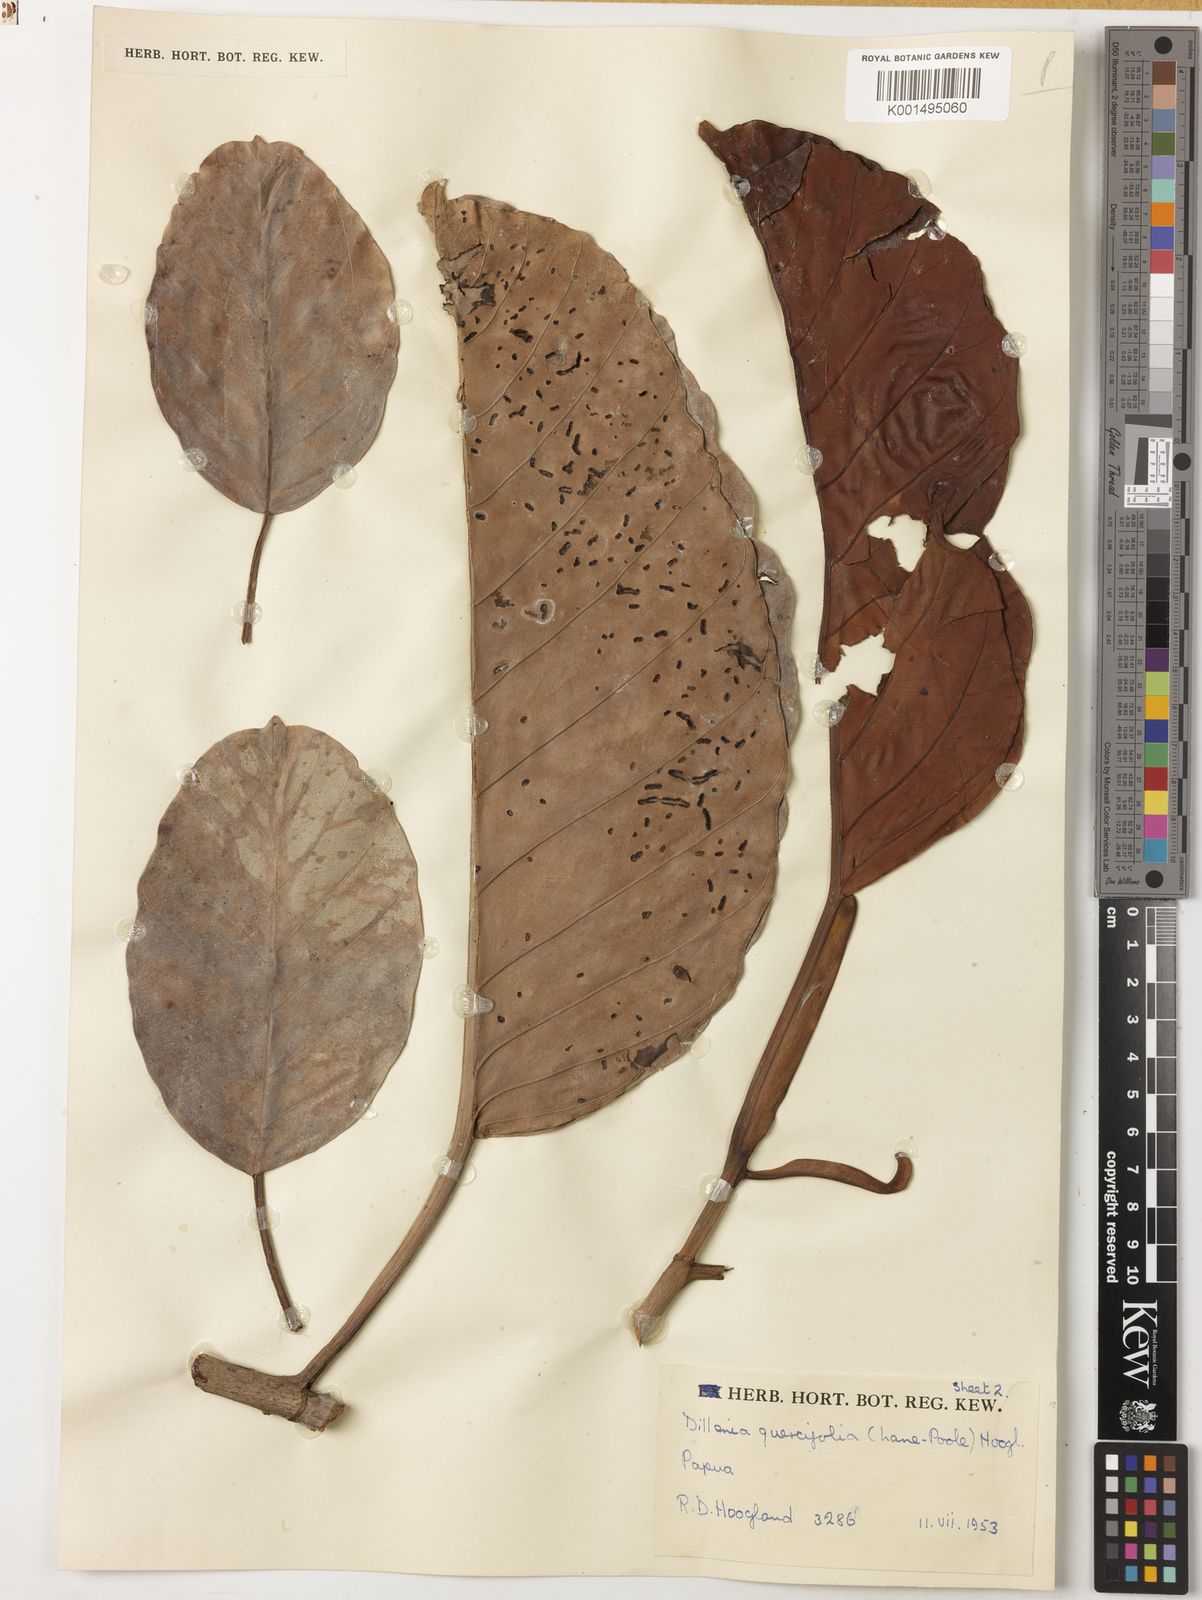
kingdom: Plantae
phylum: Tracheophyta
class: Magnoliopsida
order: Dilleniales
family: Dilleniaceae
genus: Dillenia
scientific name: Dillenia quercifolia
